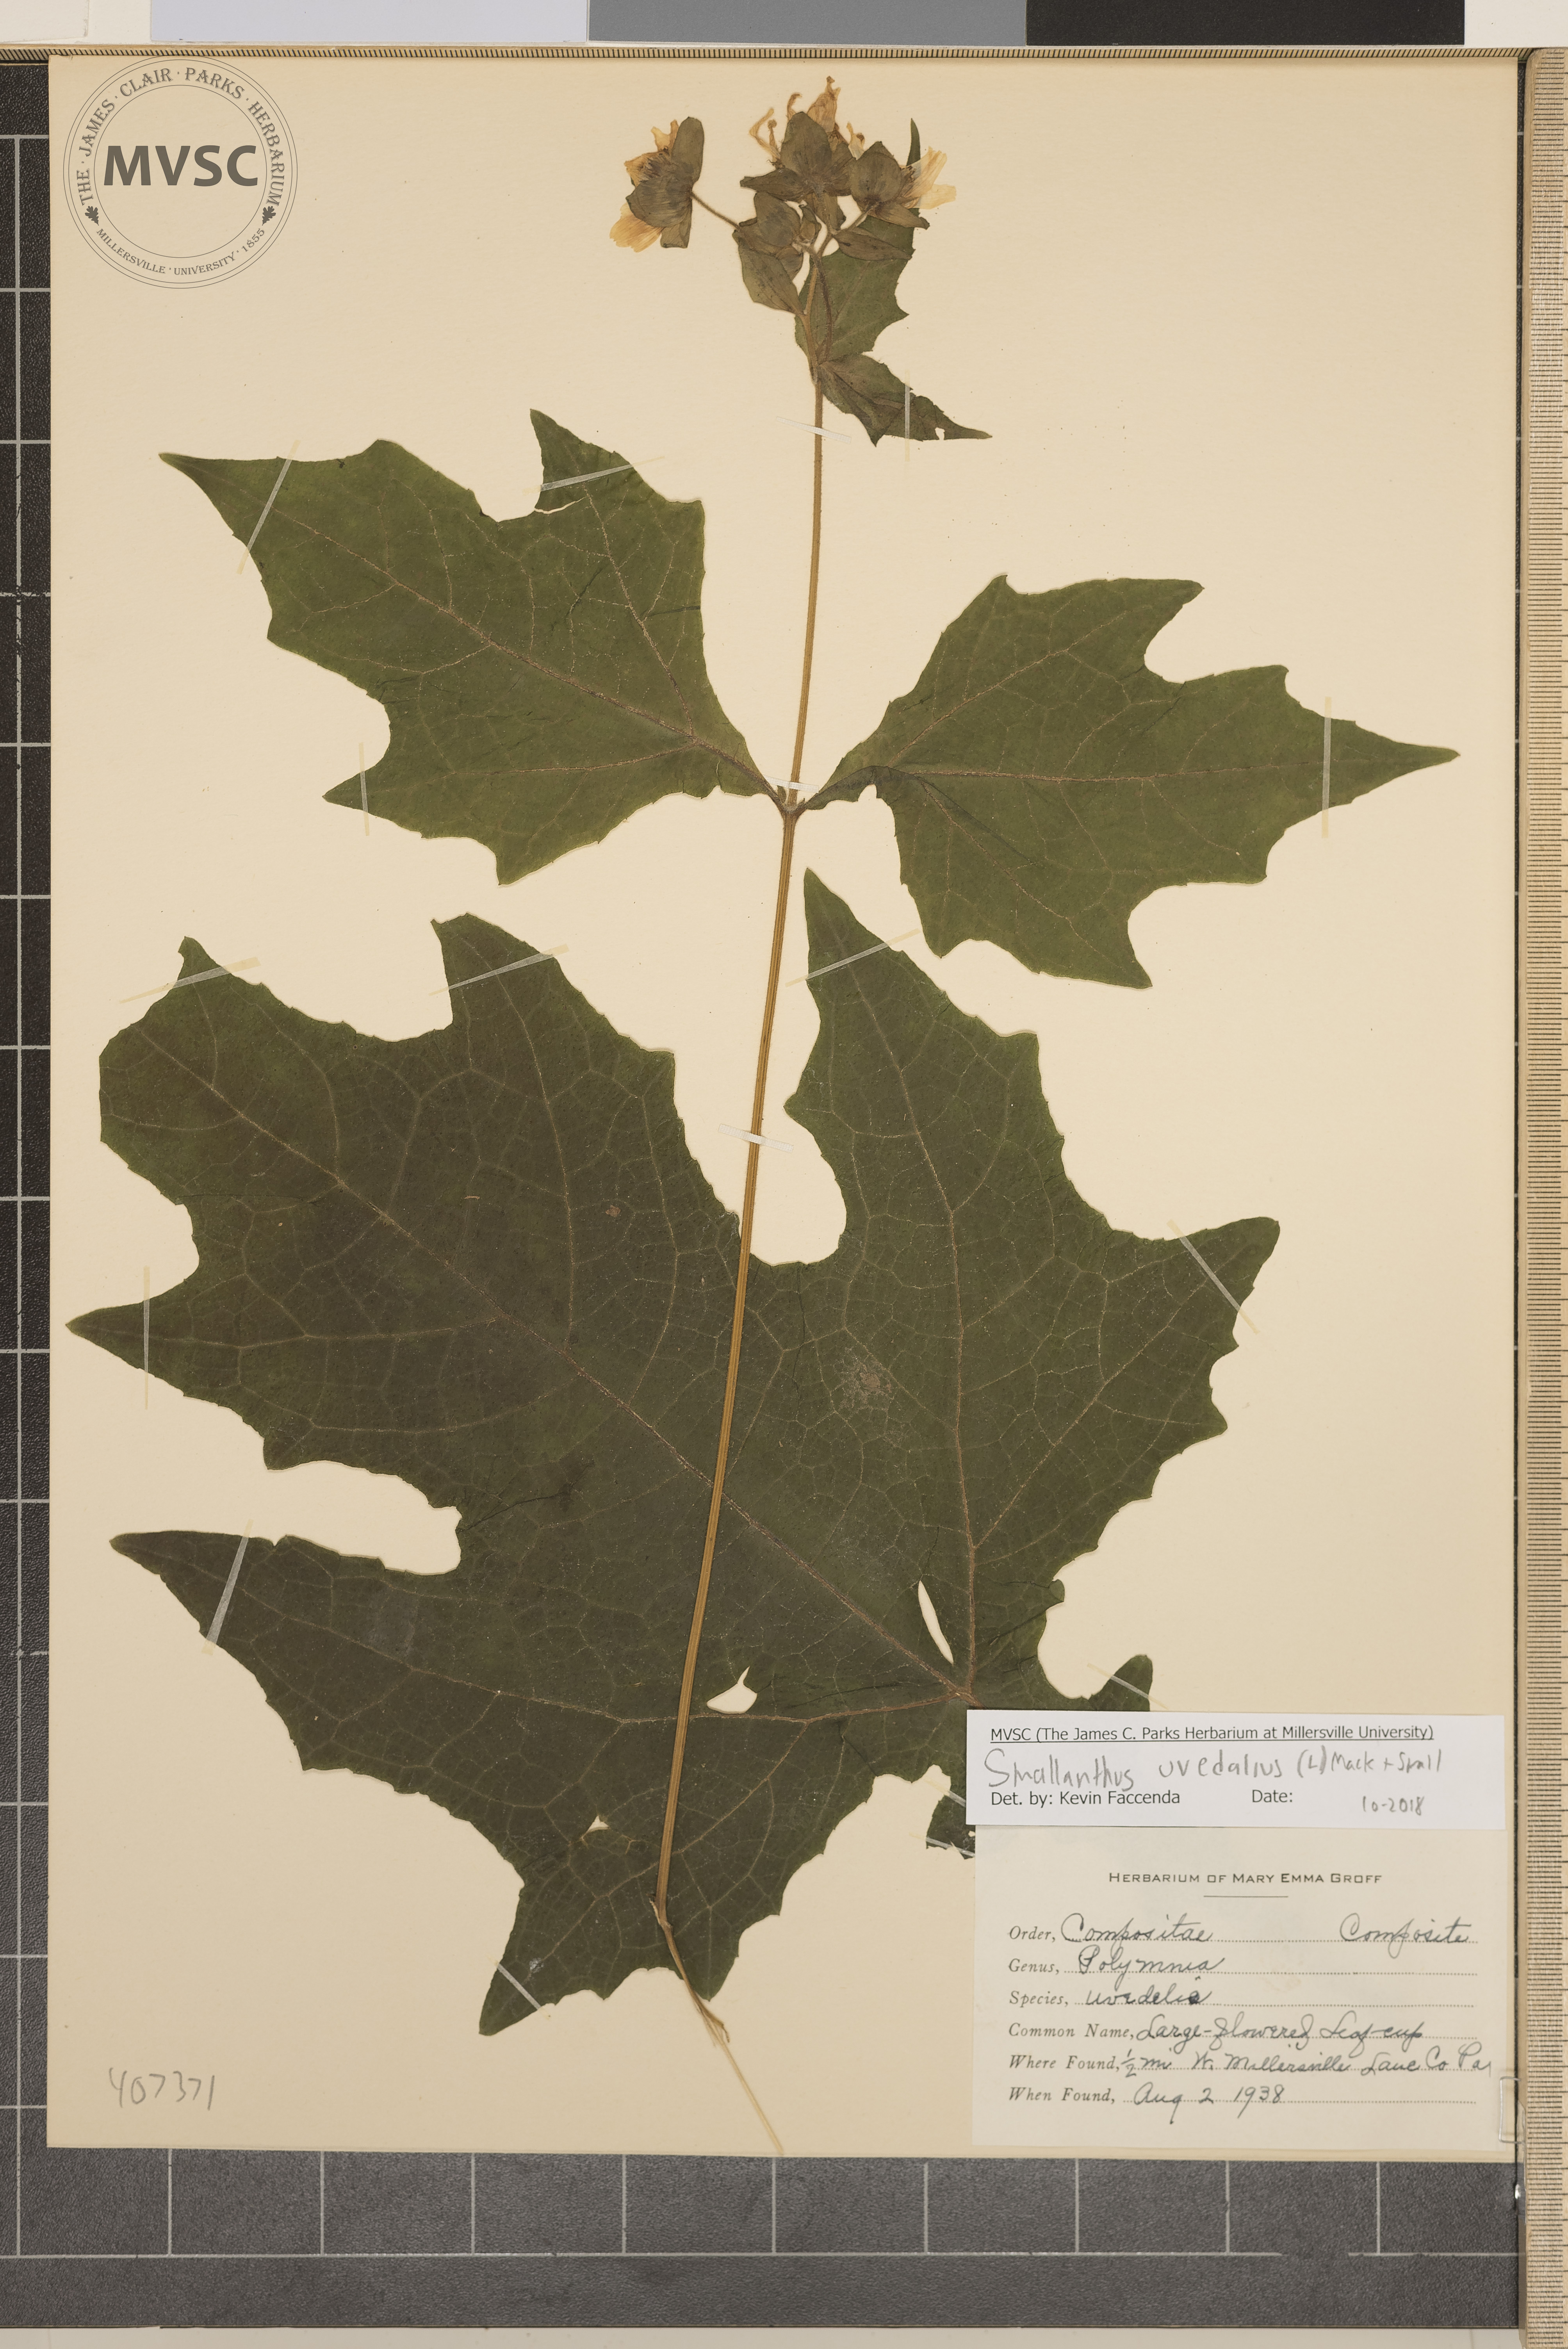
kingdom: Plantae
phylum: Tracheophyta
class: Magnoliopsida
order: Asterales
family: Asteraceae
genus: Smallanthus
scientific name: Smallanthus uvedalia
